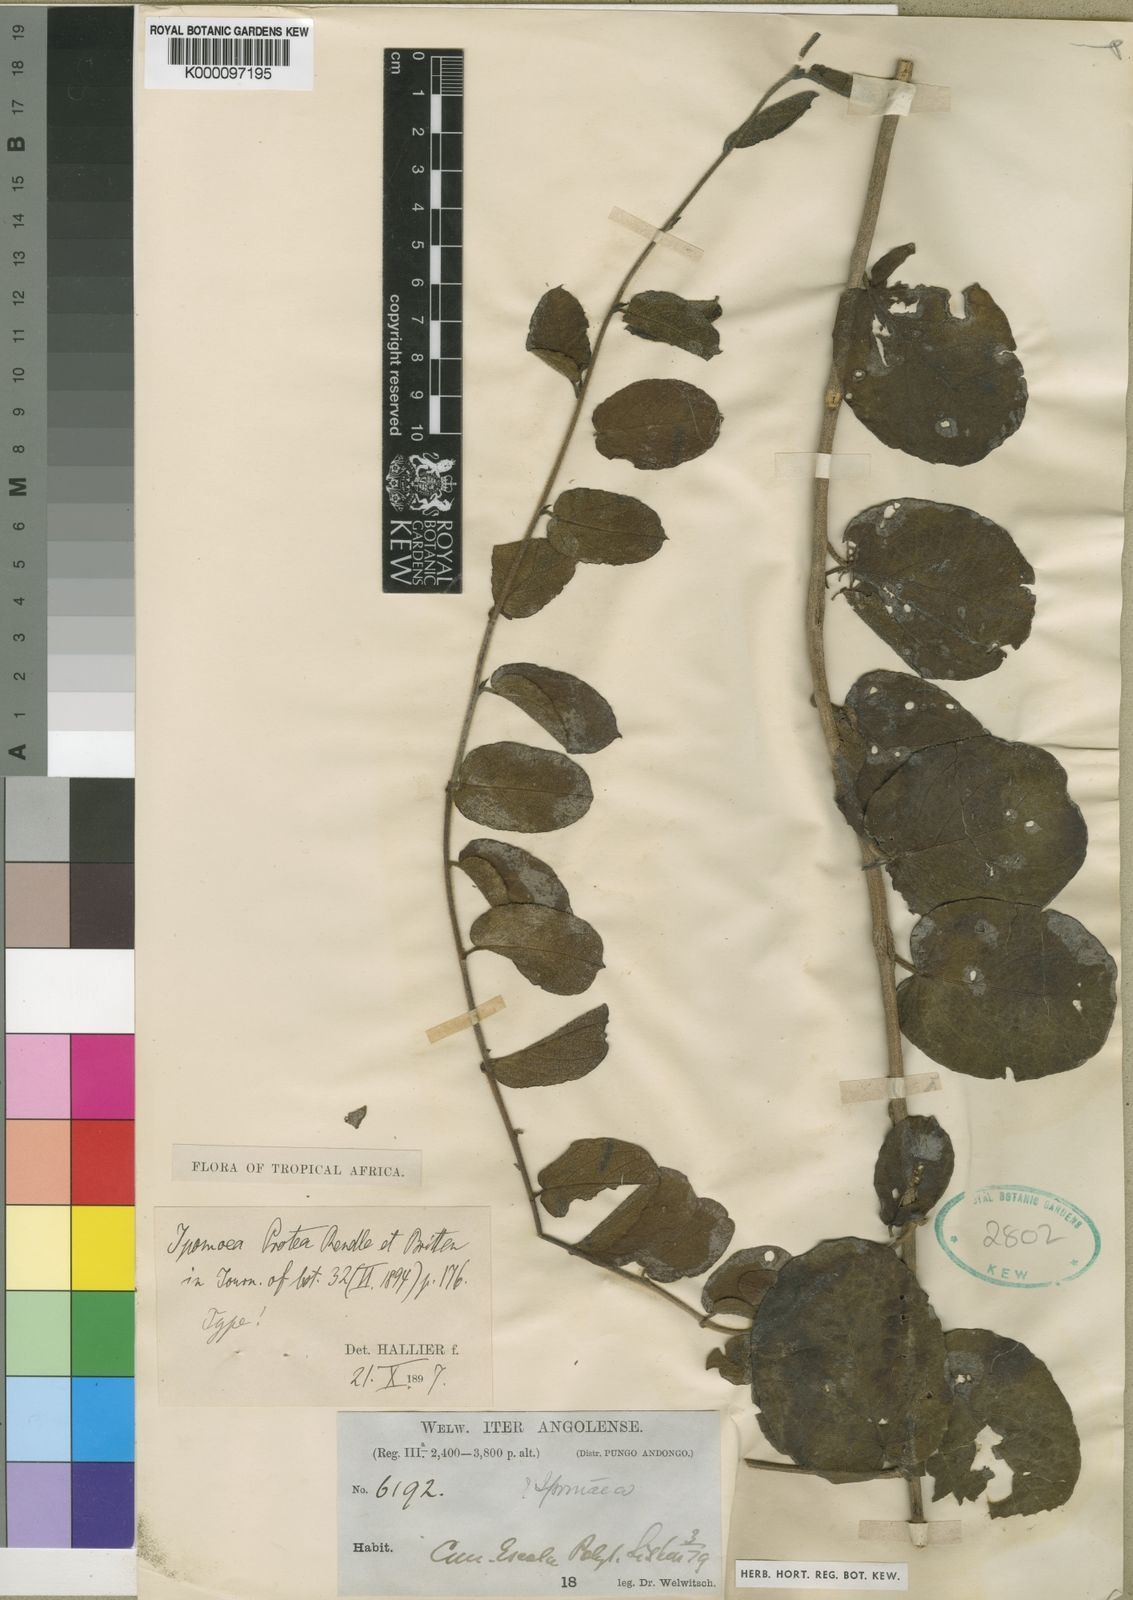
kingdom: Plantae
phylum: Tracheophyta
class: Magnoliopsida
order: Solanales
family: Convolvulaceae
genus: Ipomoea
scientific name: Ipomoea protea
